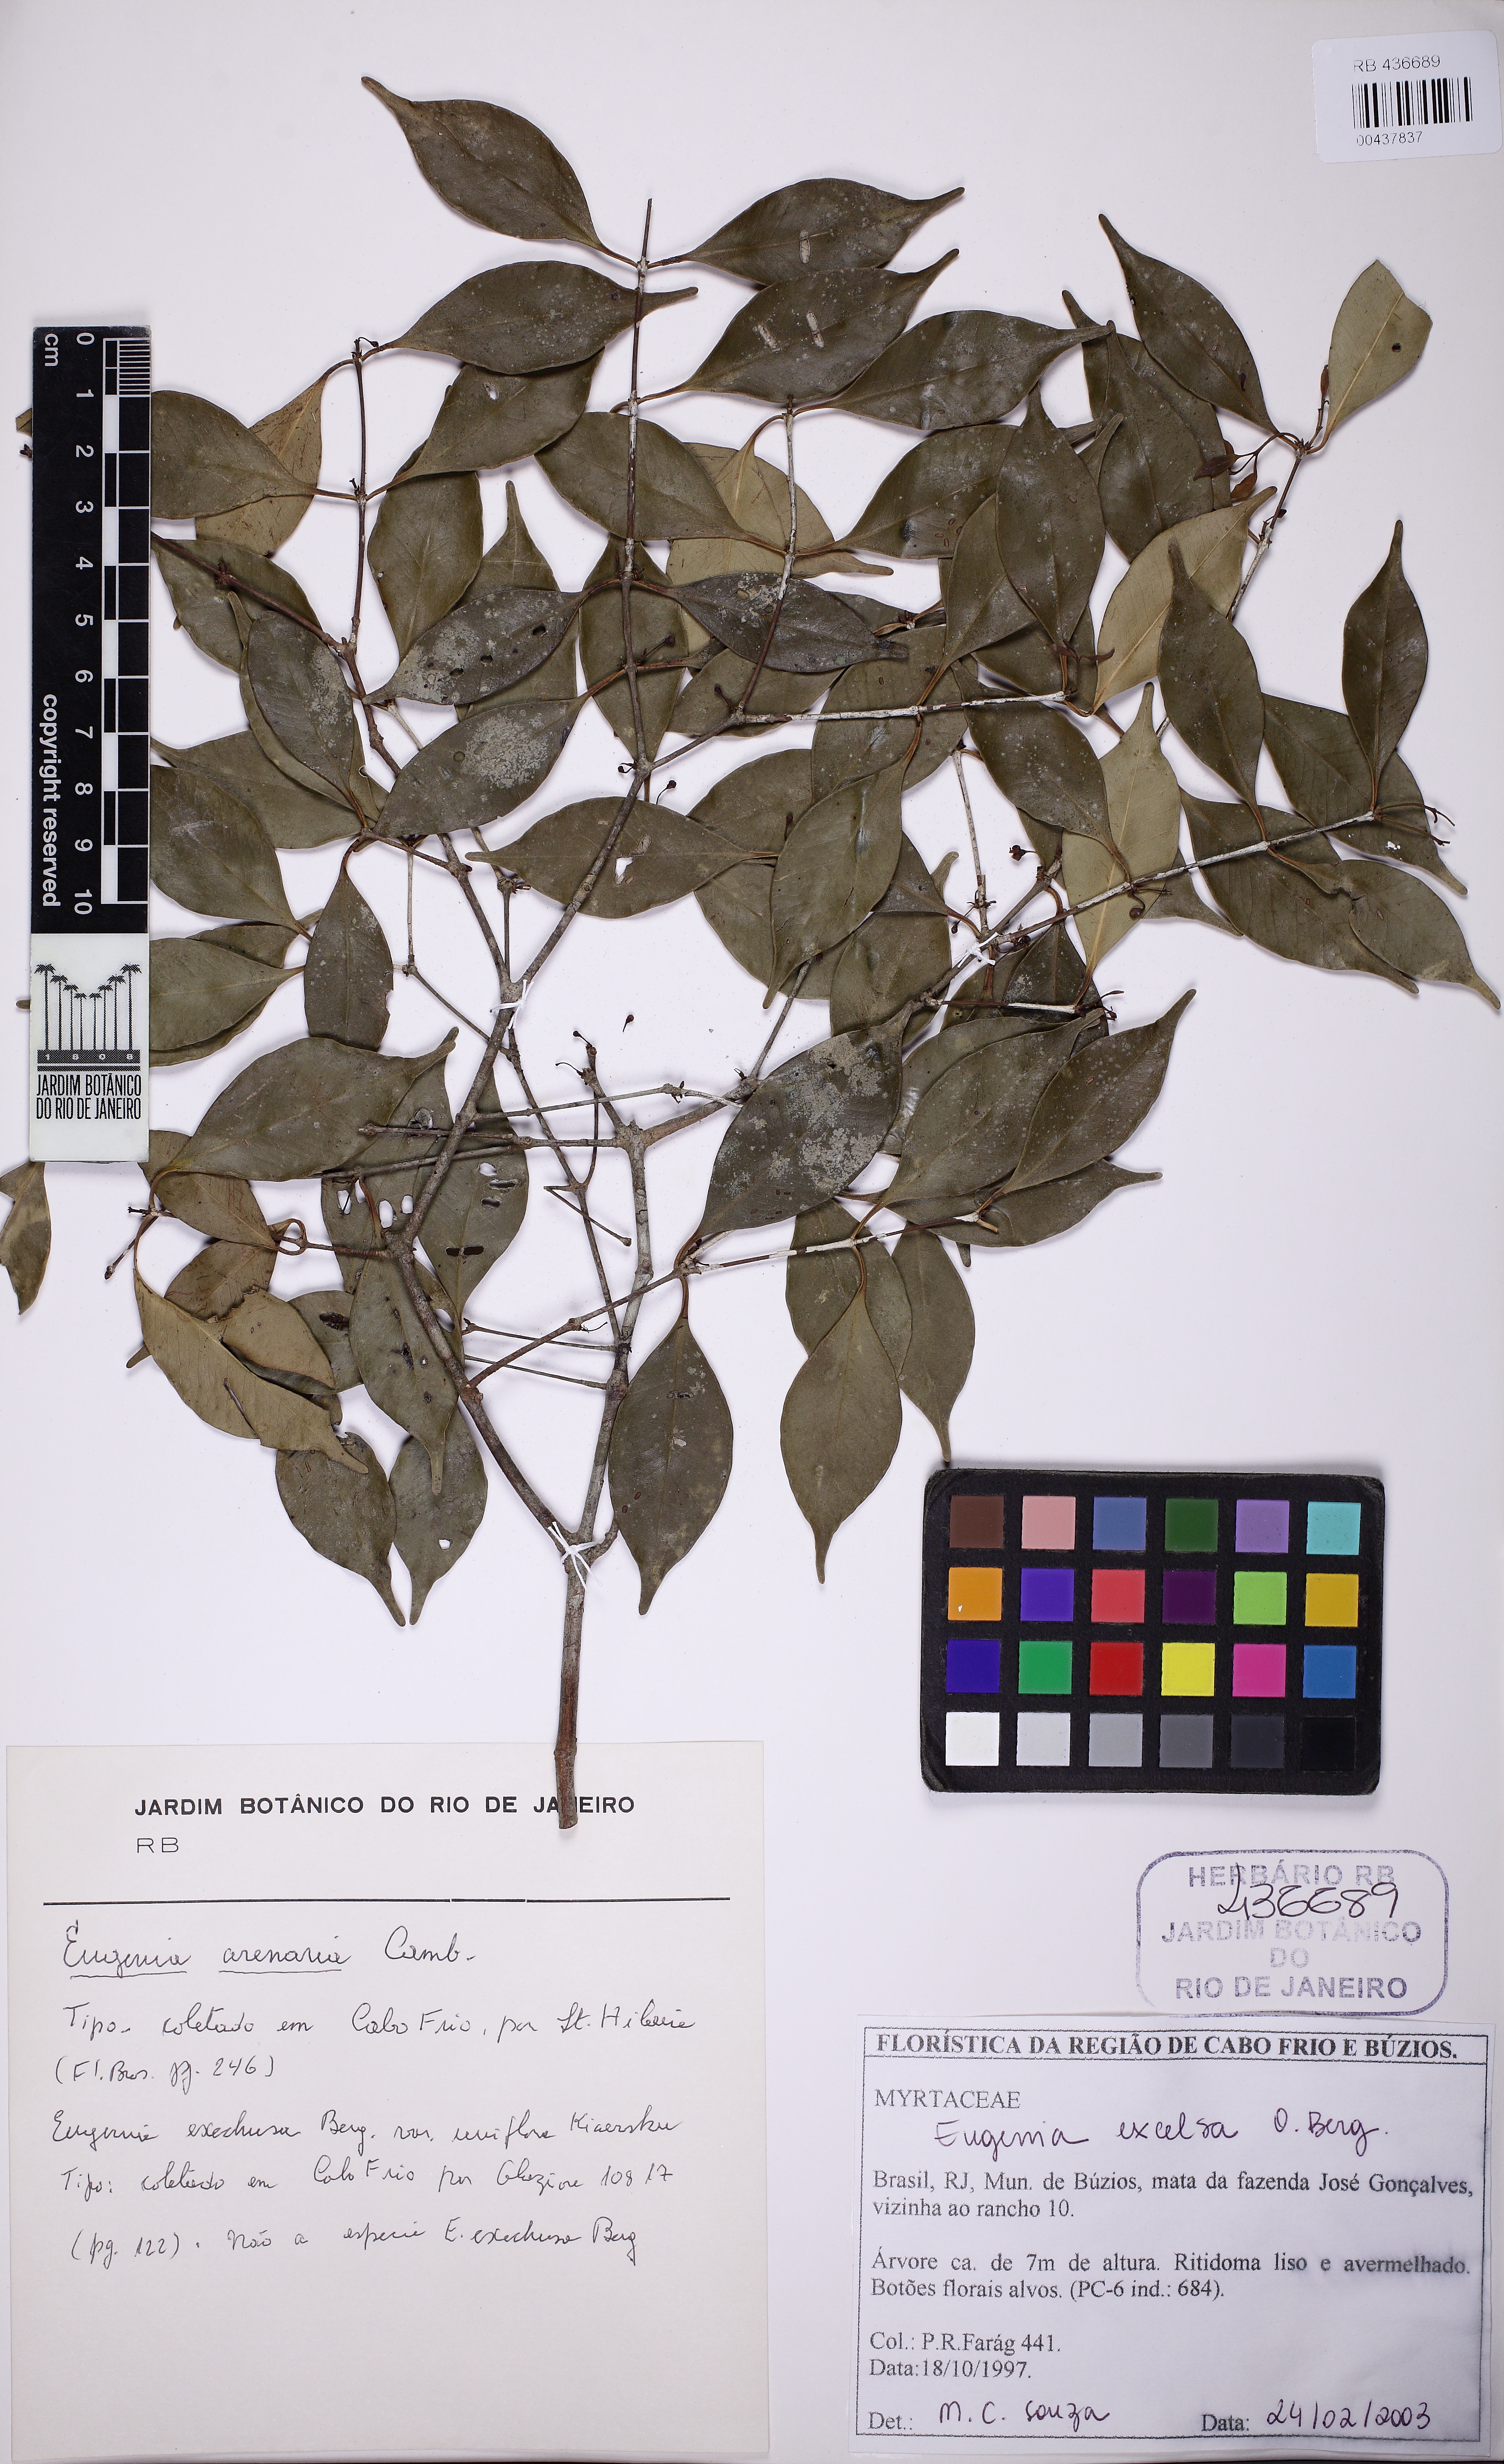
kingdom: Plantae
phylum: Tracheophyta
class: Magnoliopsida
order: Myrtales
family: Myrtaceae
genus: Eugenia
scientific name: Eugenia excelsa
